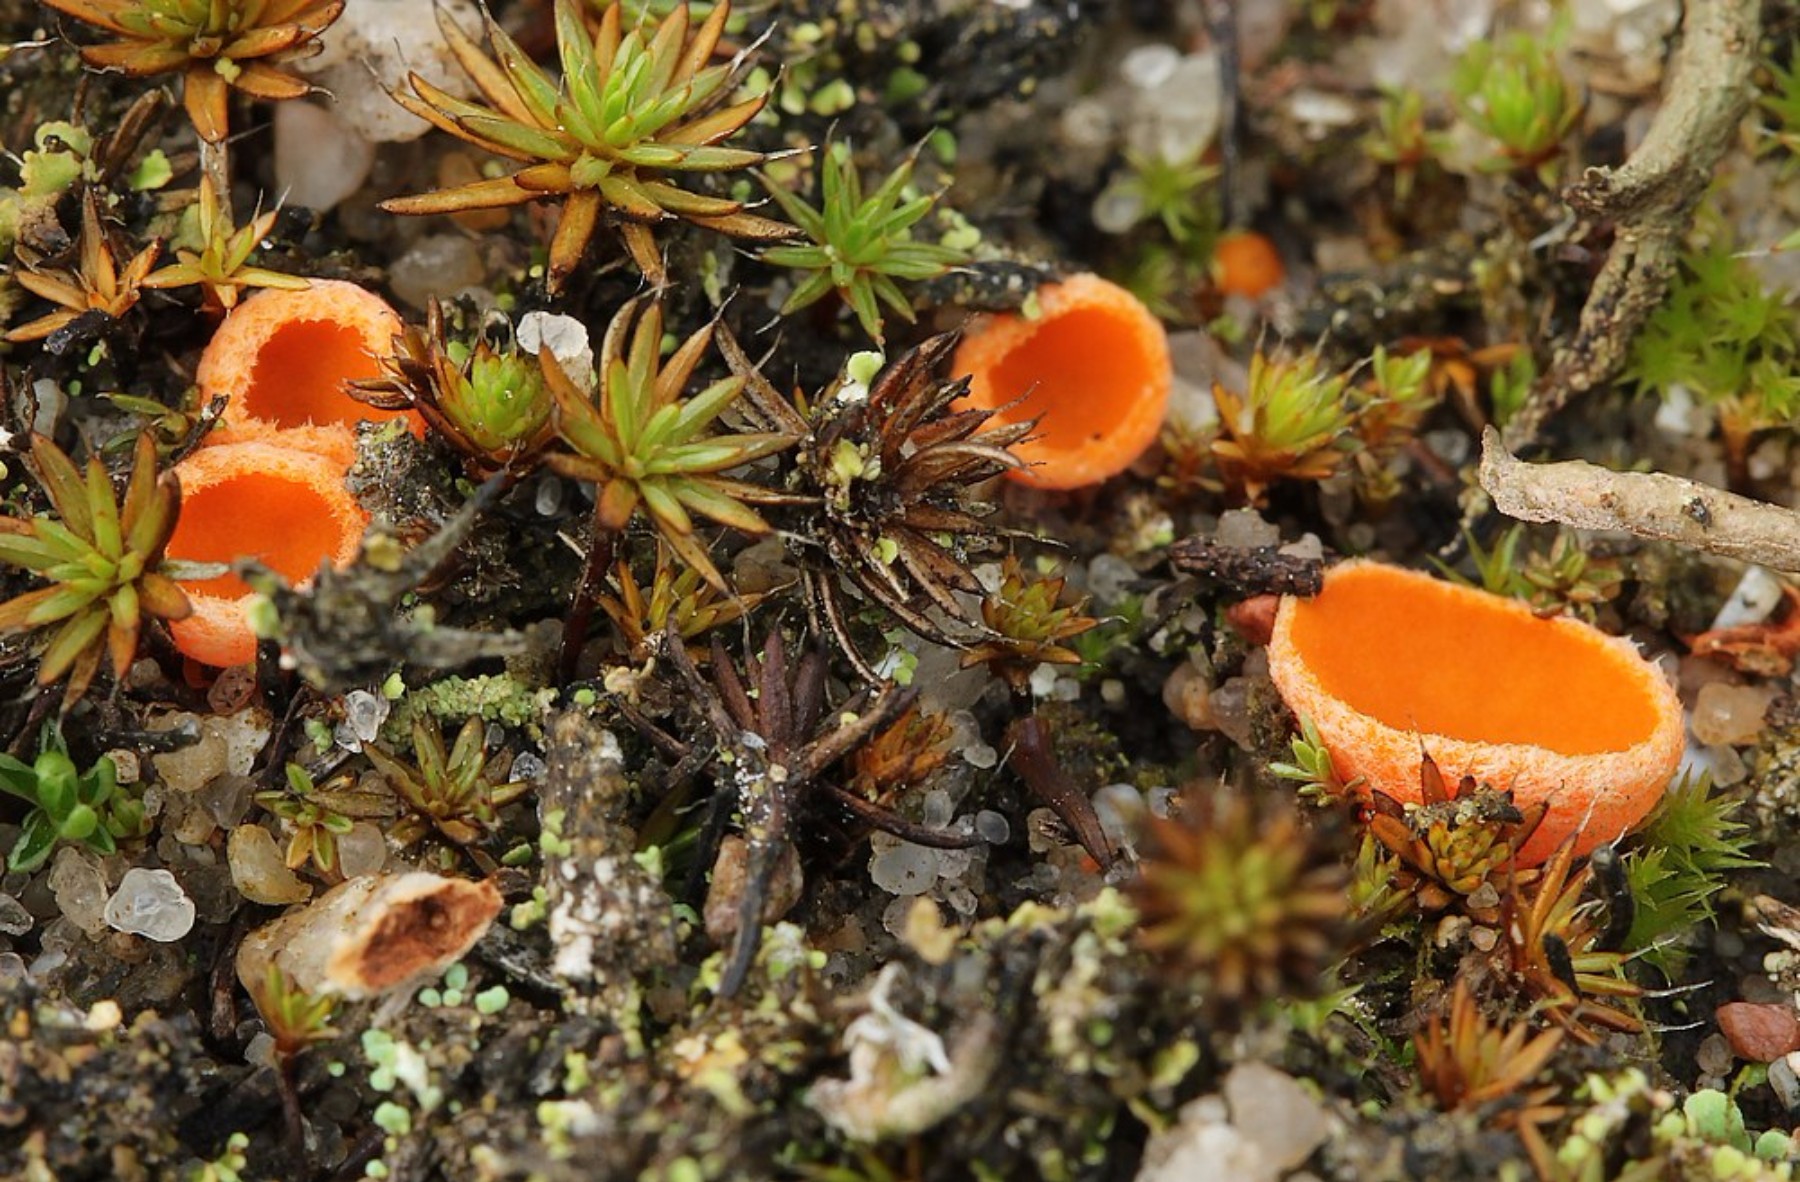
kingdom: Fungi
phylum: Ascomycota
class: Pezizomycetes
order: Pezizales
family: Pyronemataceae
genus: Neottiella
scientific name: Neottiella
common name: mosbæger
